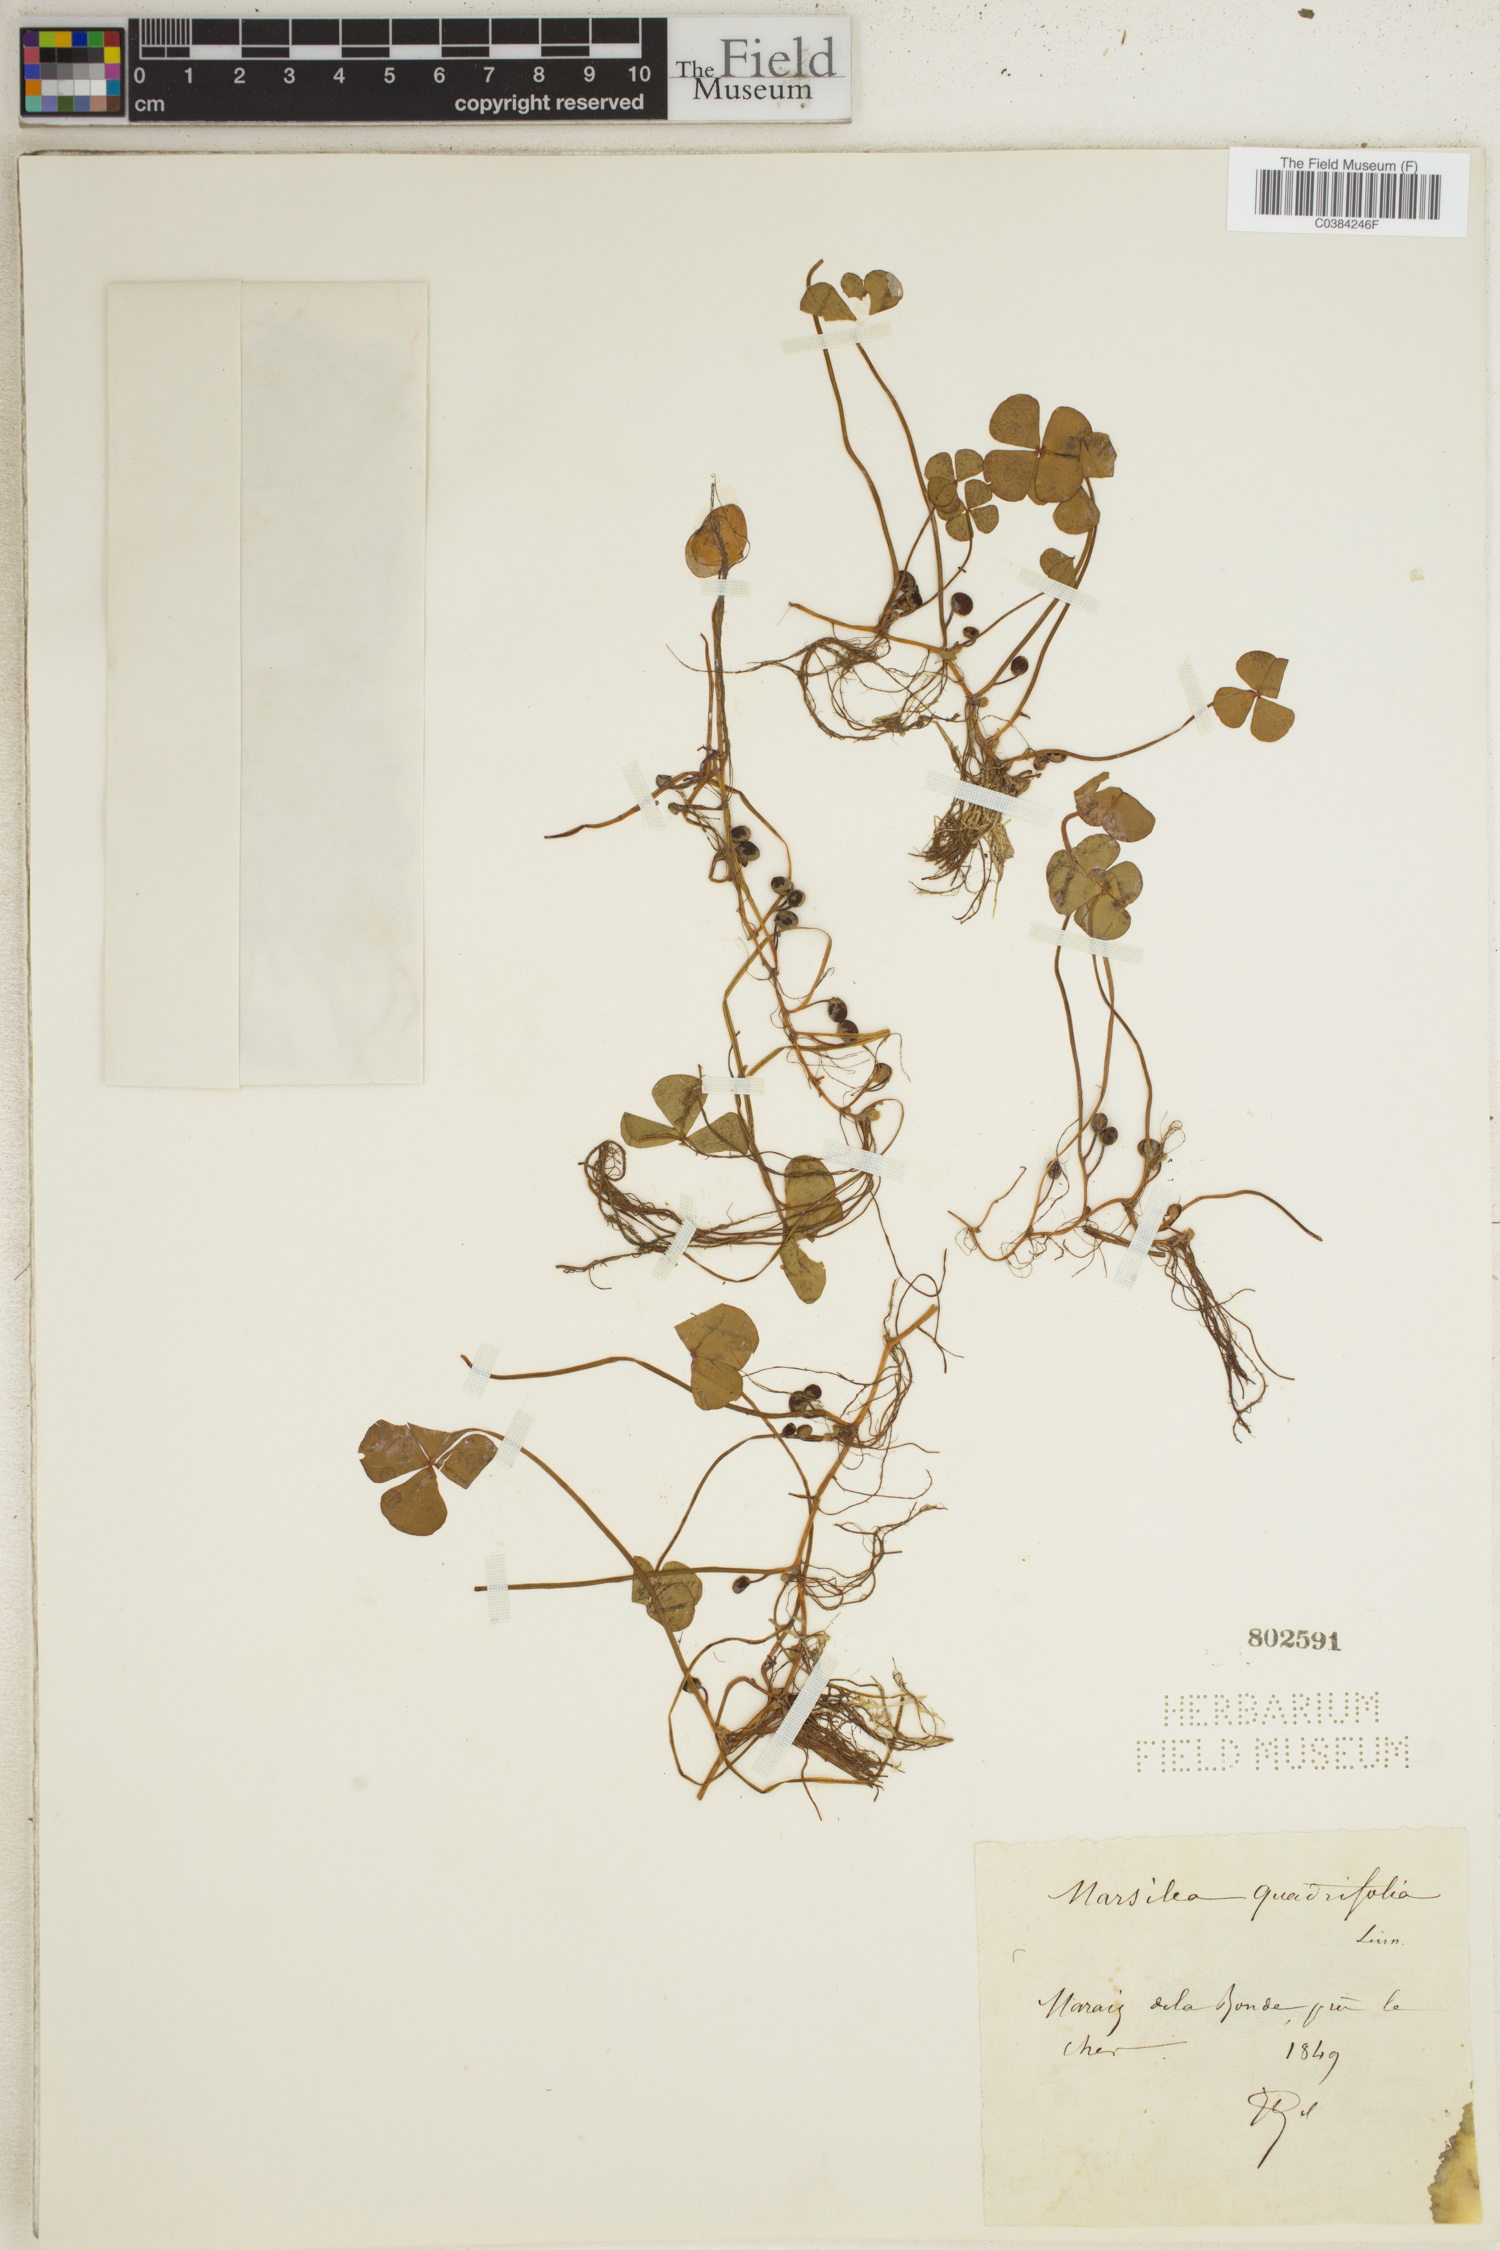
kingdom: Plantae
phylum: Tracheophyta
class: Polypodiopsida
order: Salviniales
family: Marsileaceae
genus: Marsilea
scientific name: Marsilea quadrifolia
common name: Water shamrock
